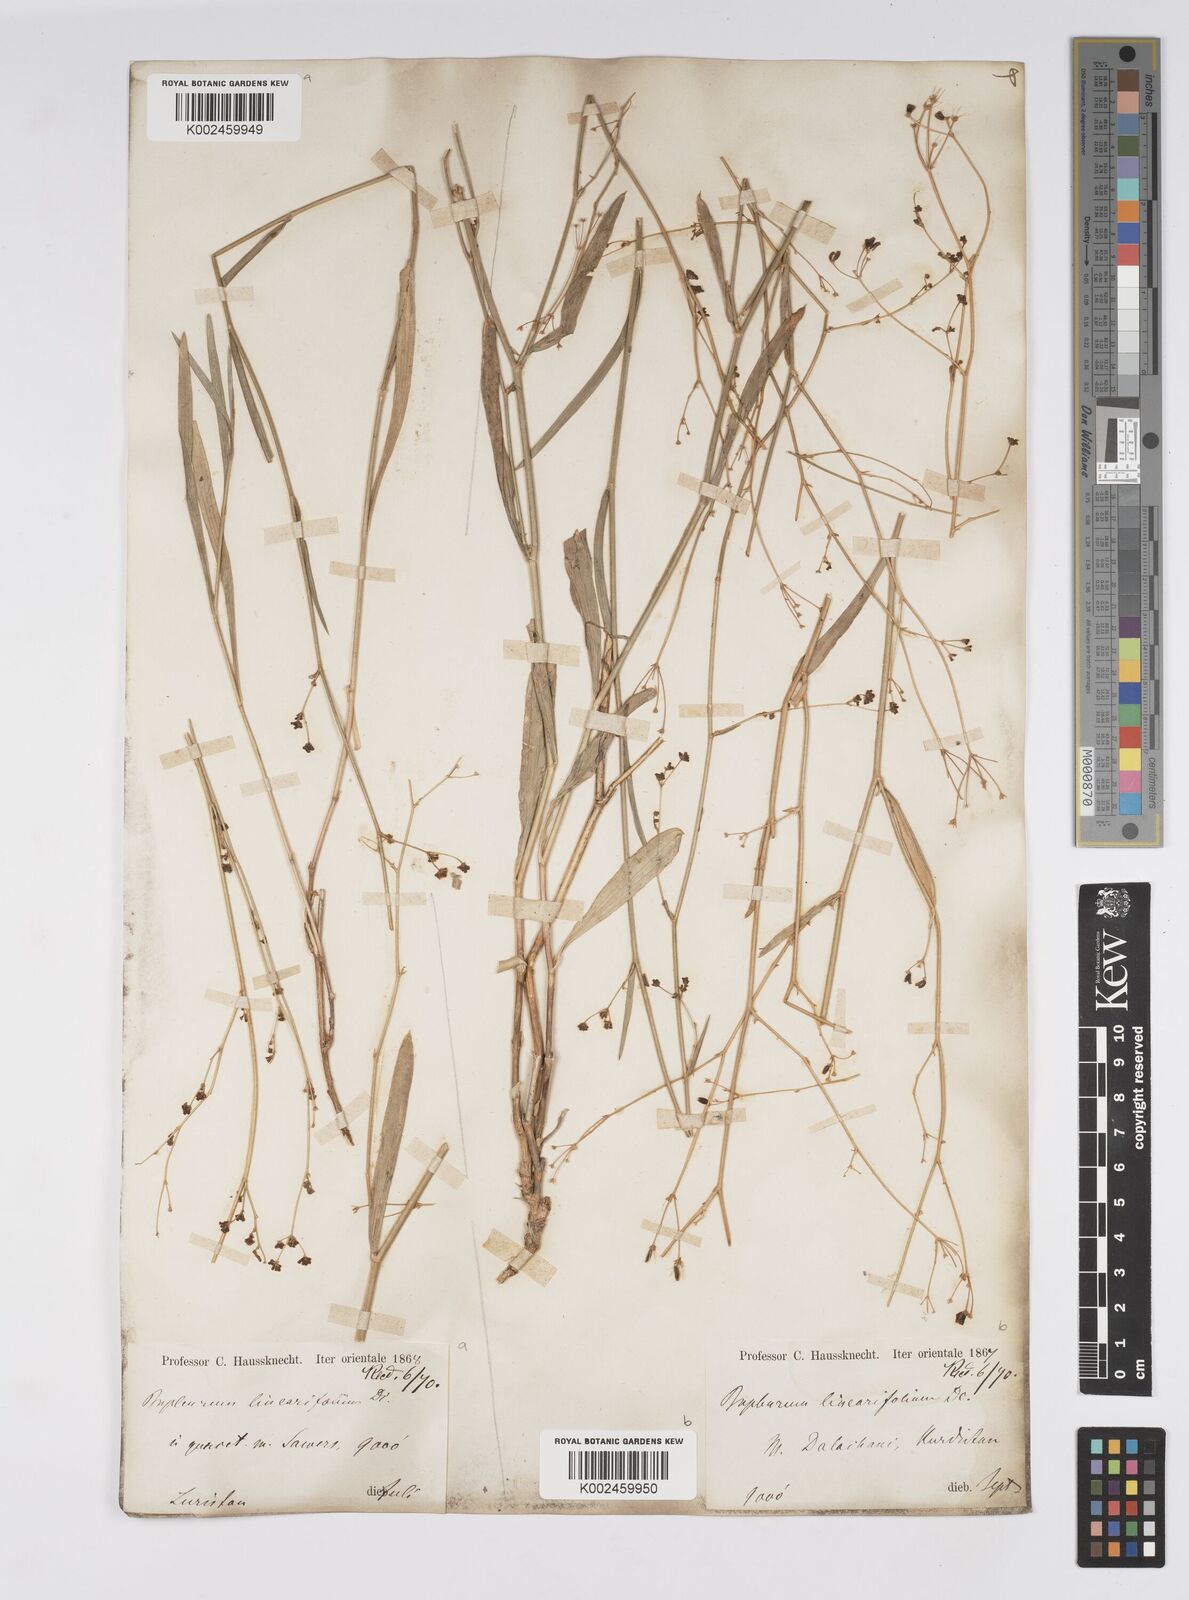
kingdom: Plantae
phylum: Tracheophyta
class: Magnoliopsida
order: Apiales
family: Apiaceae
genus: Bupleurum
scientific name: Bupleurum falcatum
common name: Sickle-leaved hare's-ear
